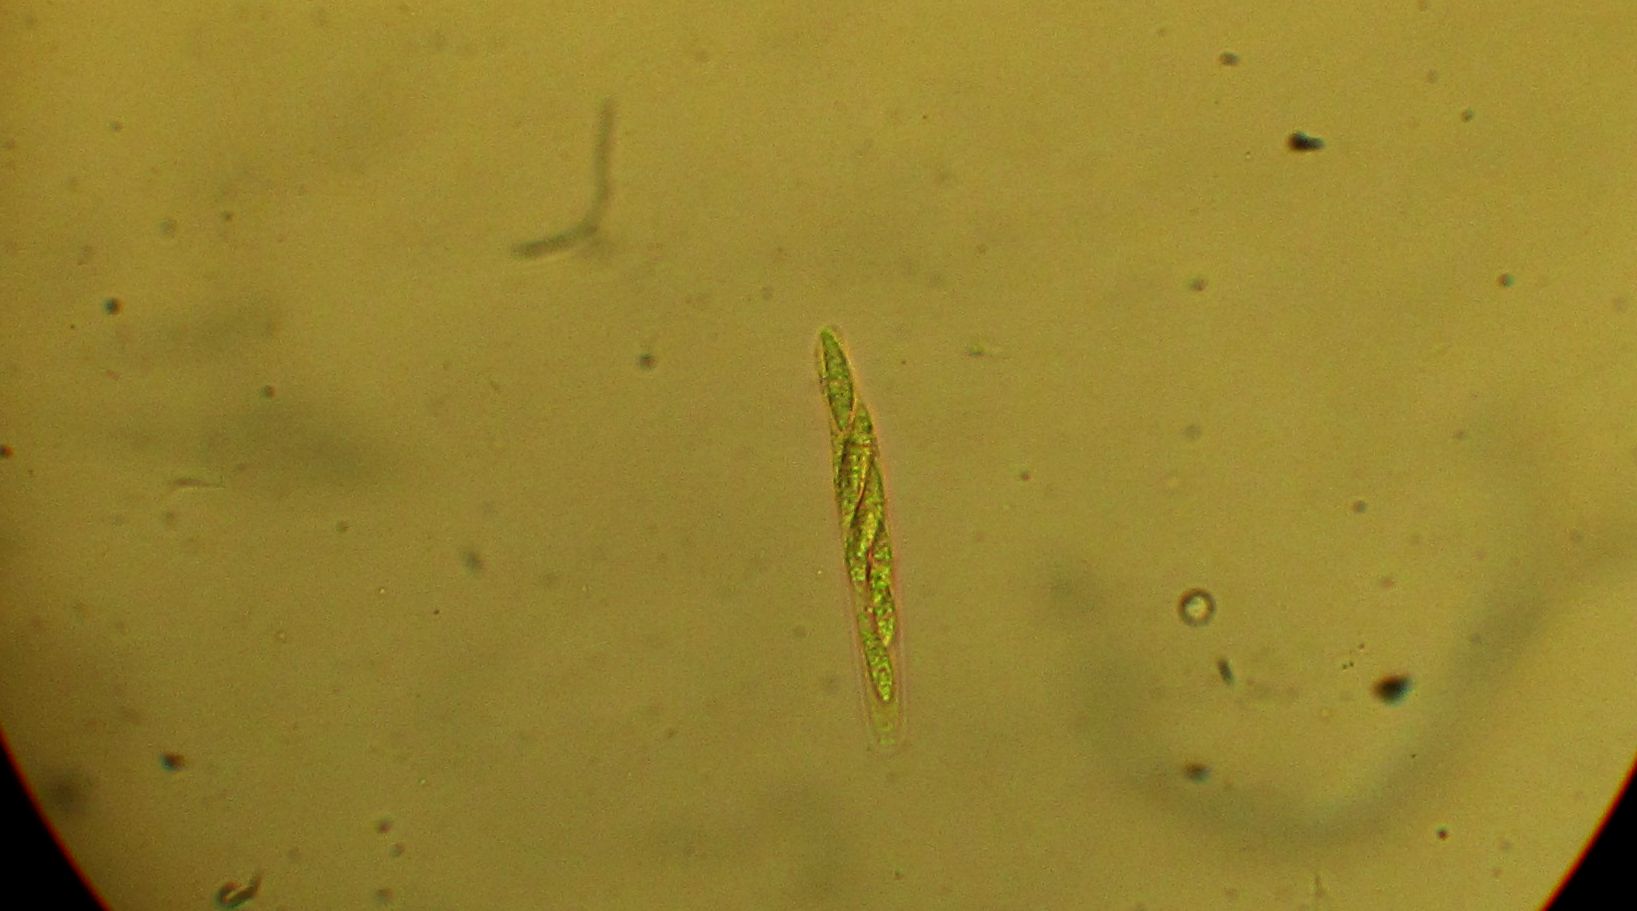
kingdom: Fungi
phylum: Ascomycota
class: Sordariomycetes
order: Xylariales
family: Diatrypaceae
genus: Eutypa
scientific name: Eutypa flavovirens
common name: grønkødet kulskorpe
